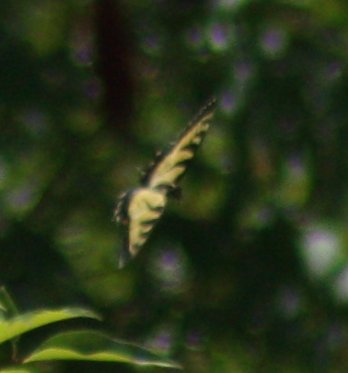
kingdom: Animalia
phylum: Arthropoda
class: Insecta
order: Lepidoptera
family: Papilionidae
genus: Pterourus
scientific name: Pterourus glaucus
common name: Eastern Tiger Swallowtail
